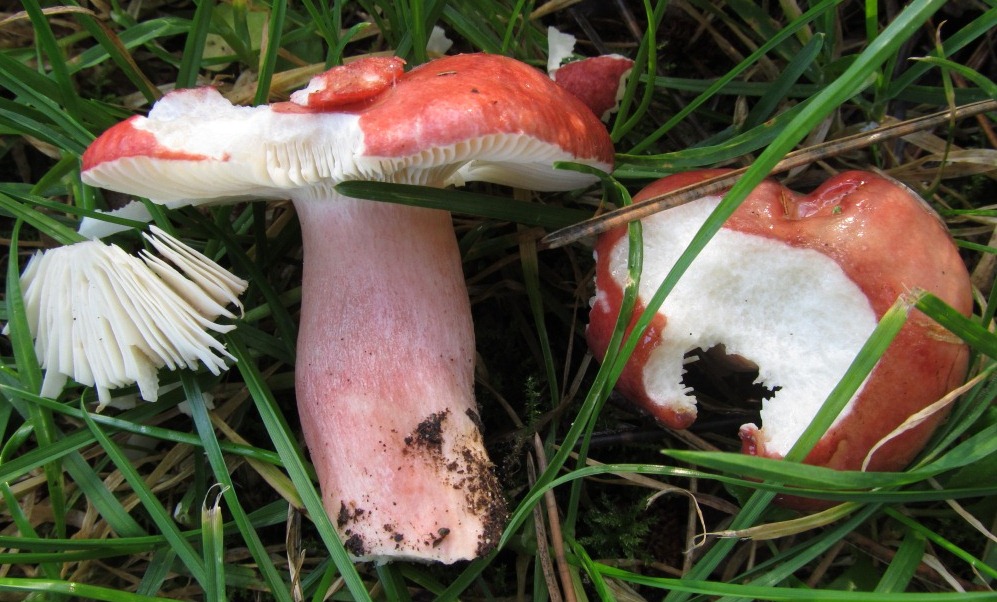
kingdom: Fungi
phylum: Basidiomycota
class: Agaricomycetes
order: Russulales
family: Russulaceae
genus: Russula
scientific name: Russula sanguinea
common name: blodrød skørhat
